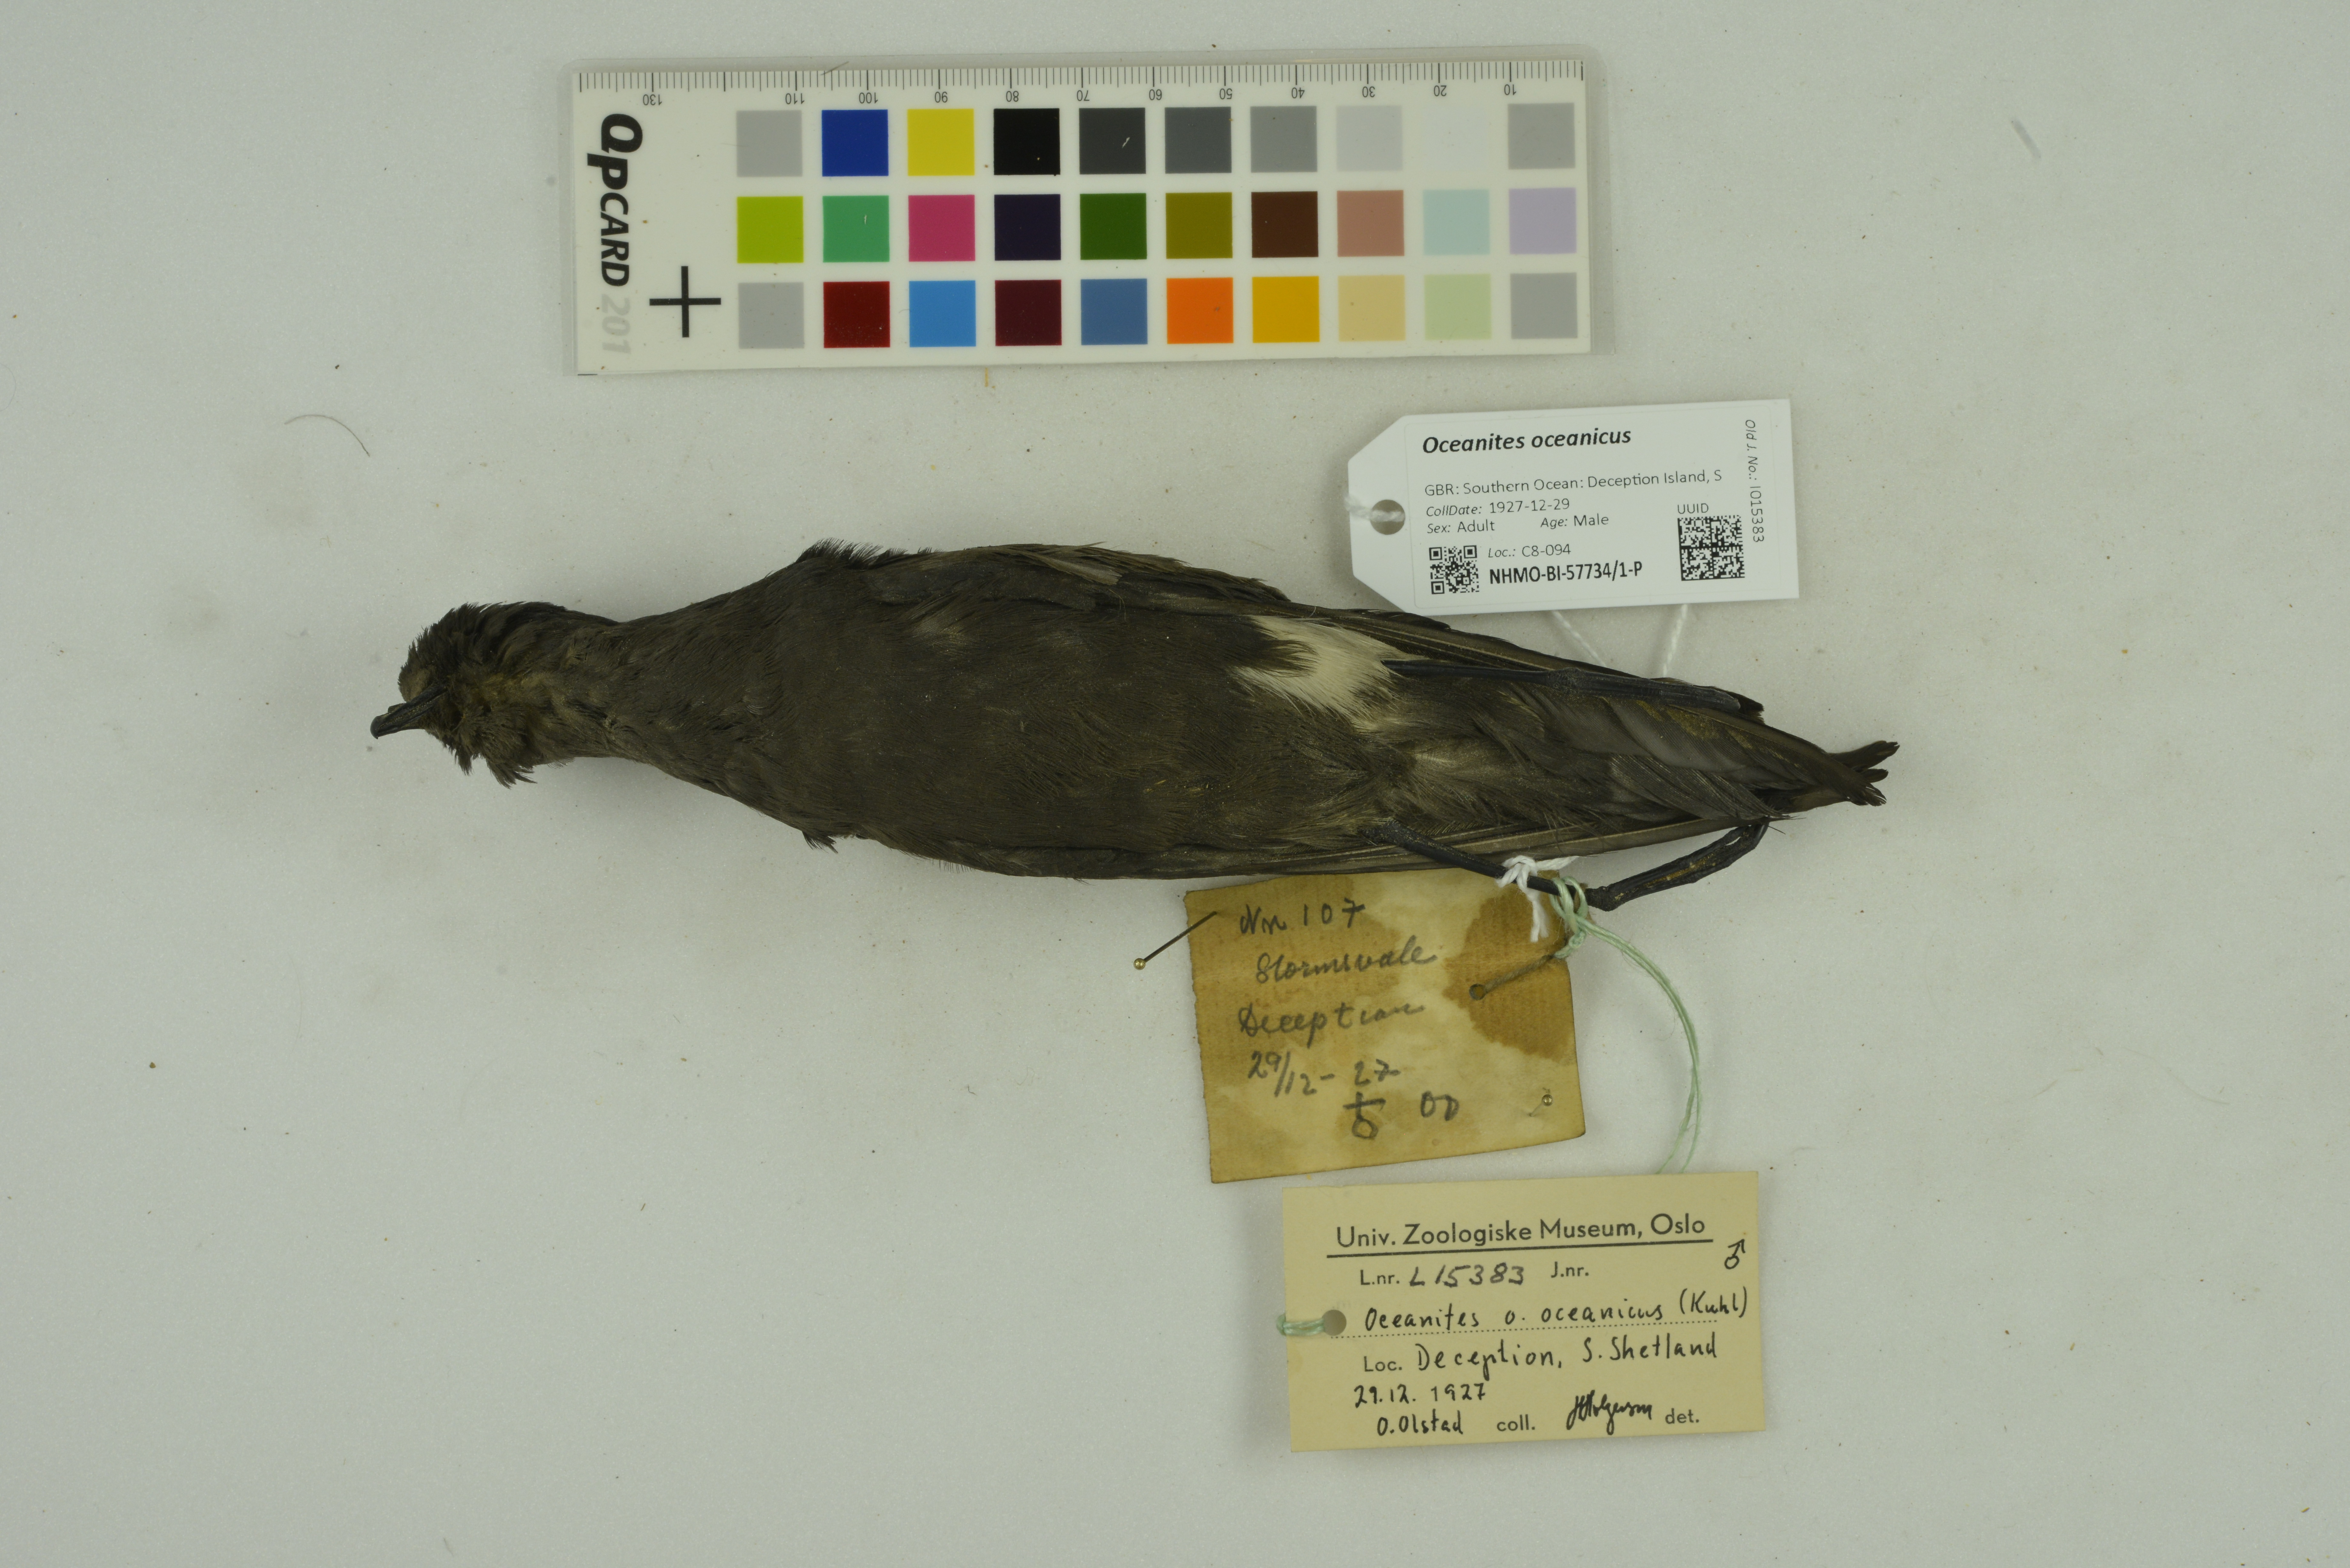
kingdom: Animalia
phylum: Chordata
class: Aves
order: Procellariiformes
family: Hydrobatidae
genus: Oceanites
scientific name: Oceanites oceanicus
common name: Wilson's storm petrel
